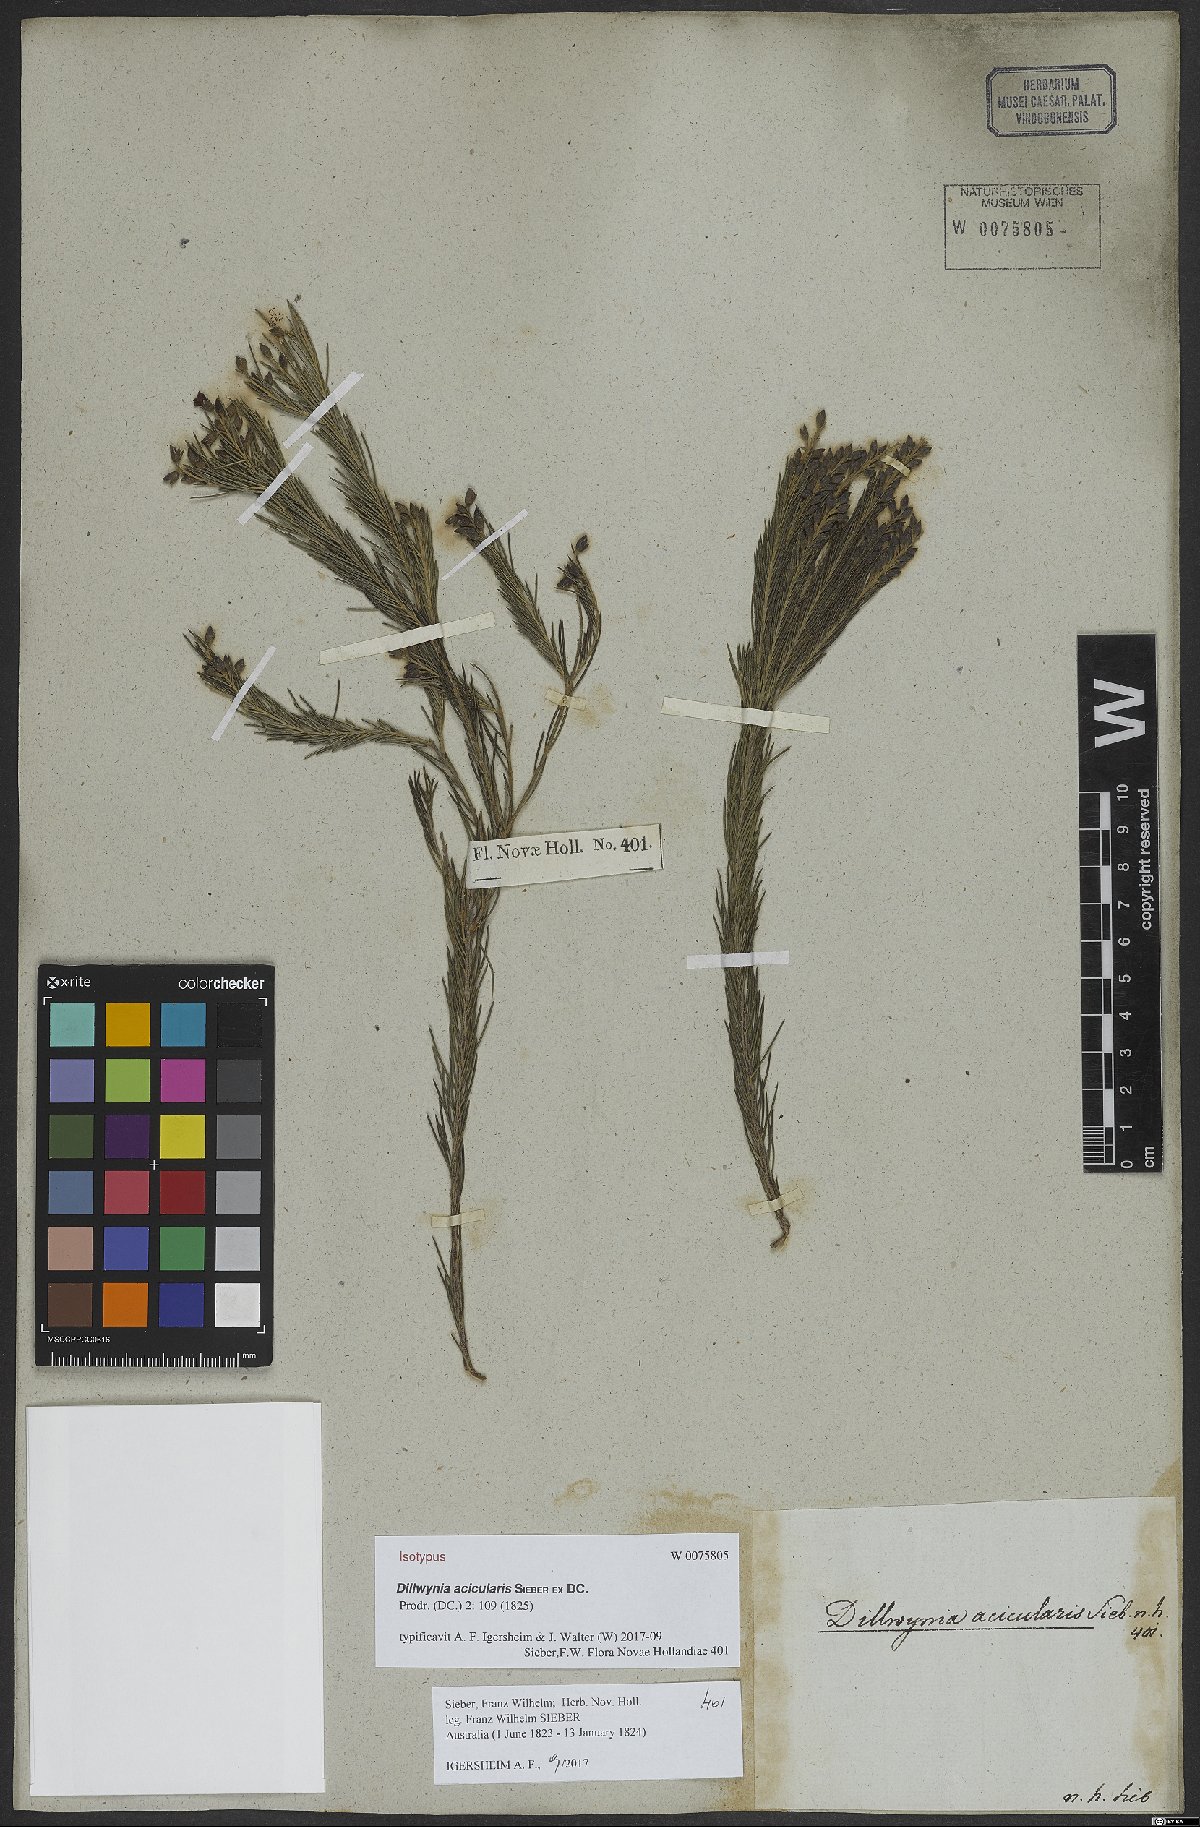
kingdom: Plantae
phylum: Tracheophyta
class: Magnoliopsida
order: Fabales
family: Fabaceae
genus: Dillwynia
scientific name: Dillwynia acicularis
